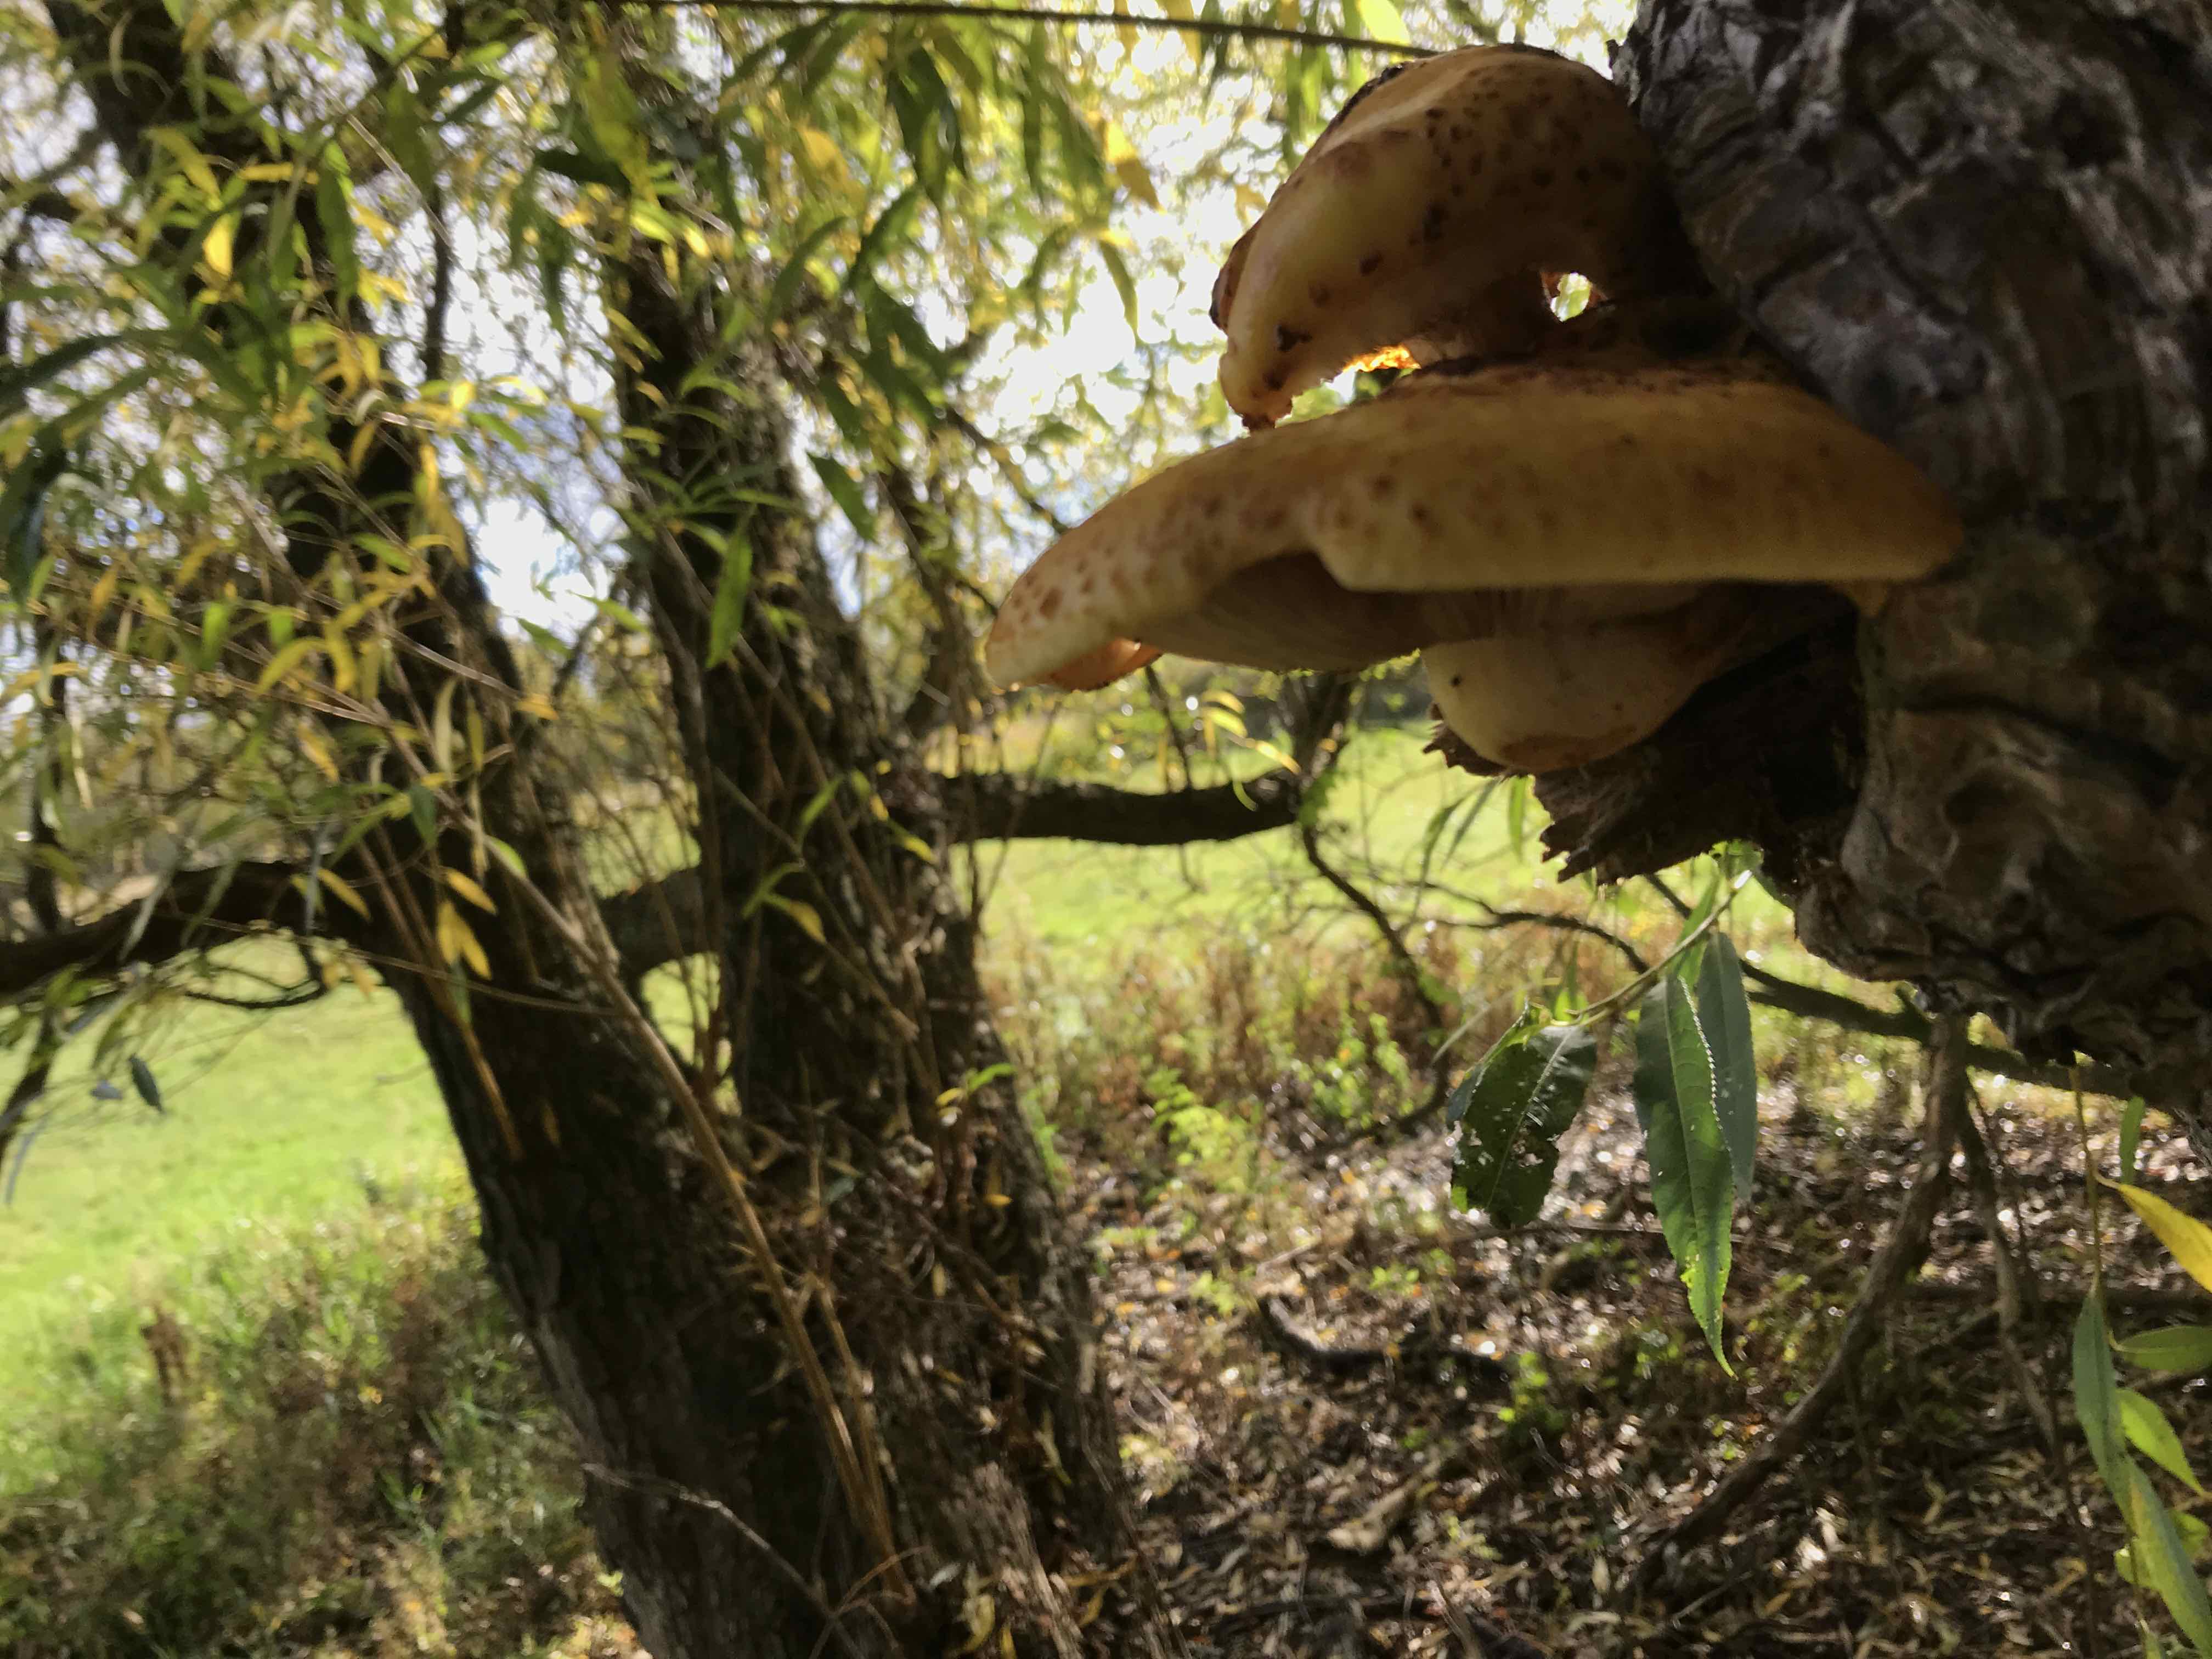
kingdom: Fungi
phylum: Basidiomycota
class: Agaricomycetes
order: Agaricales
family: Strophariaceae
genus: Pholiota
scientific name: Pholiota aurivella
